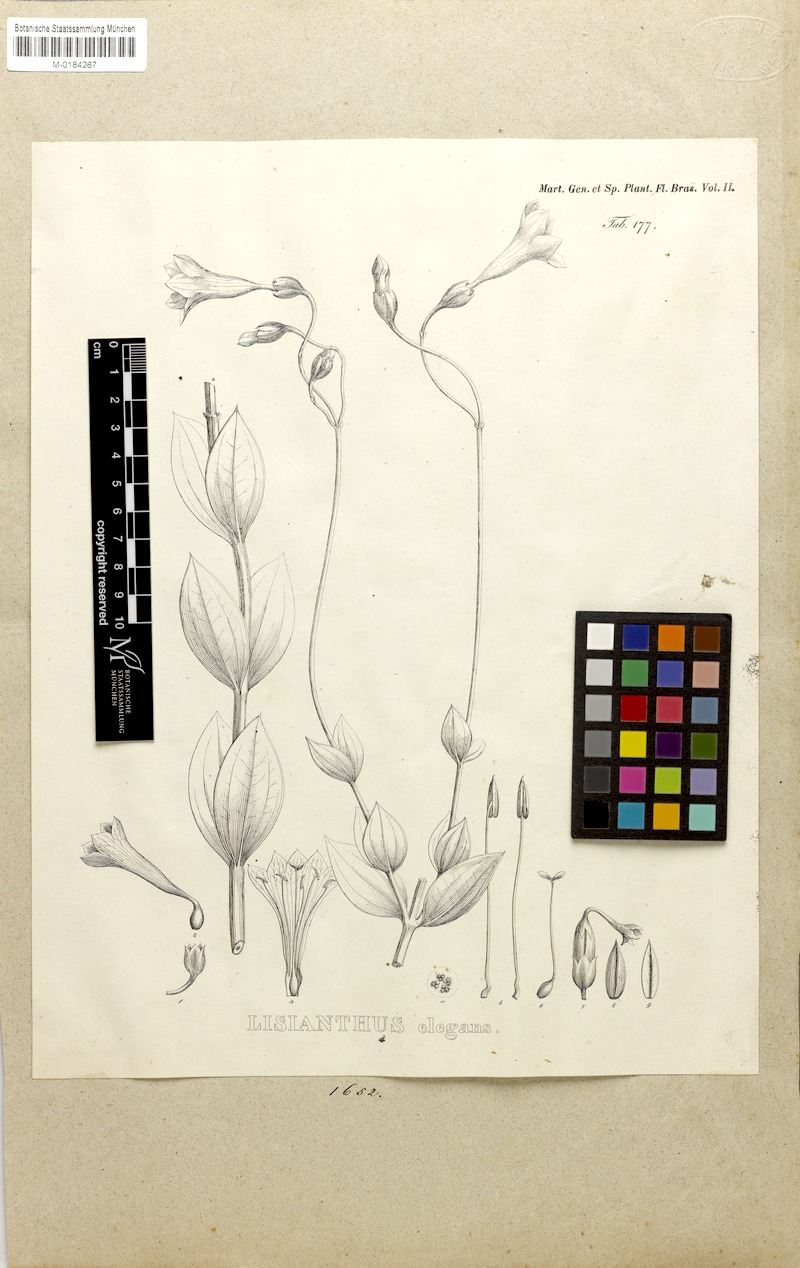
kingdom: Plantae
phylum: Tracheophyta
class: Magnoliopsida
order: Gentianales
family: Gentianaceae
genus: Calolisianthus
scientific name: Calolisianthus pulcherrimus
